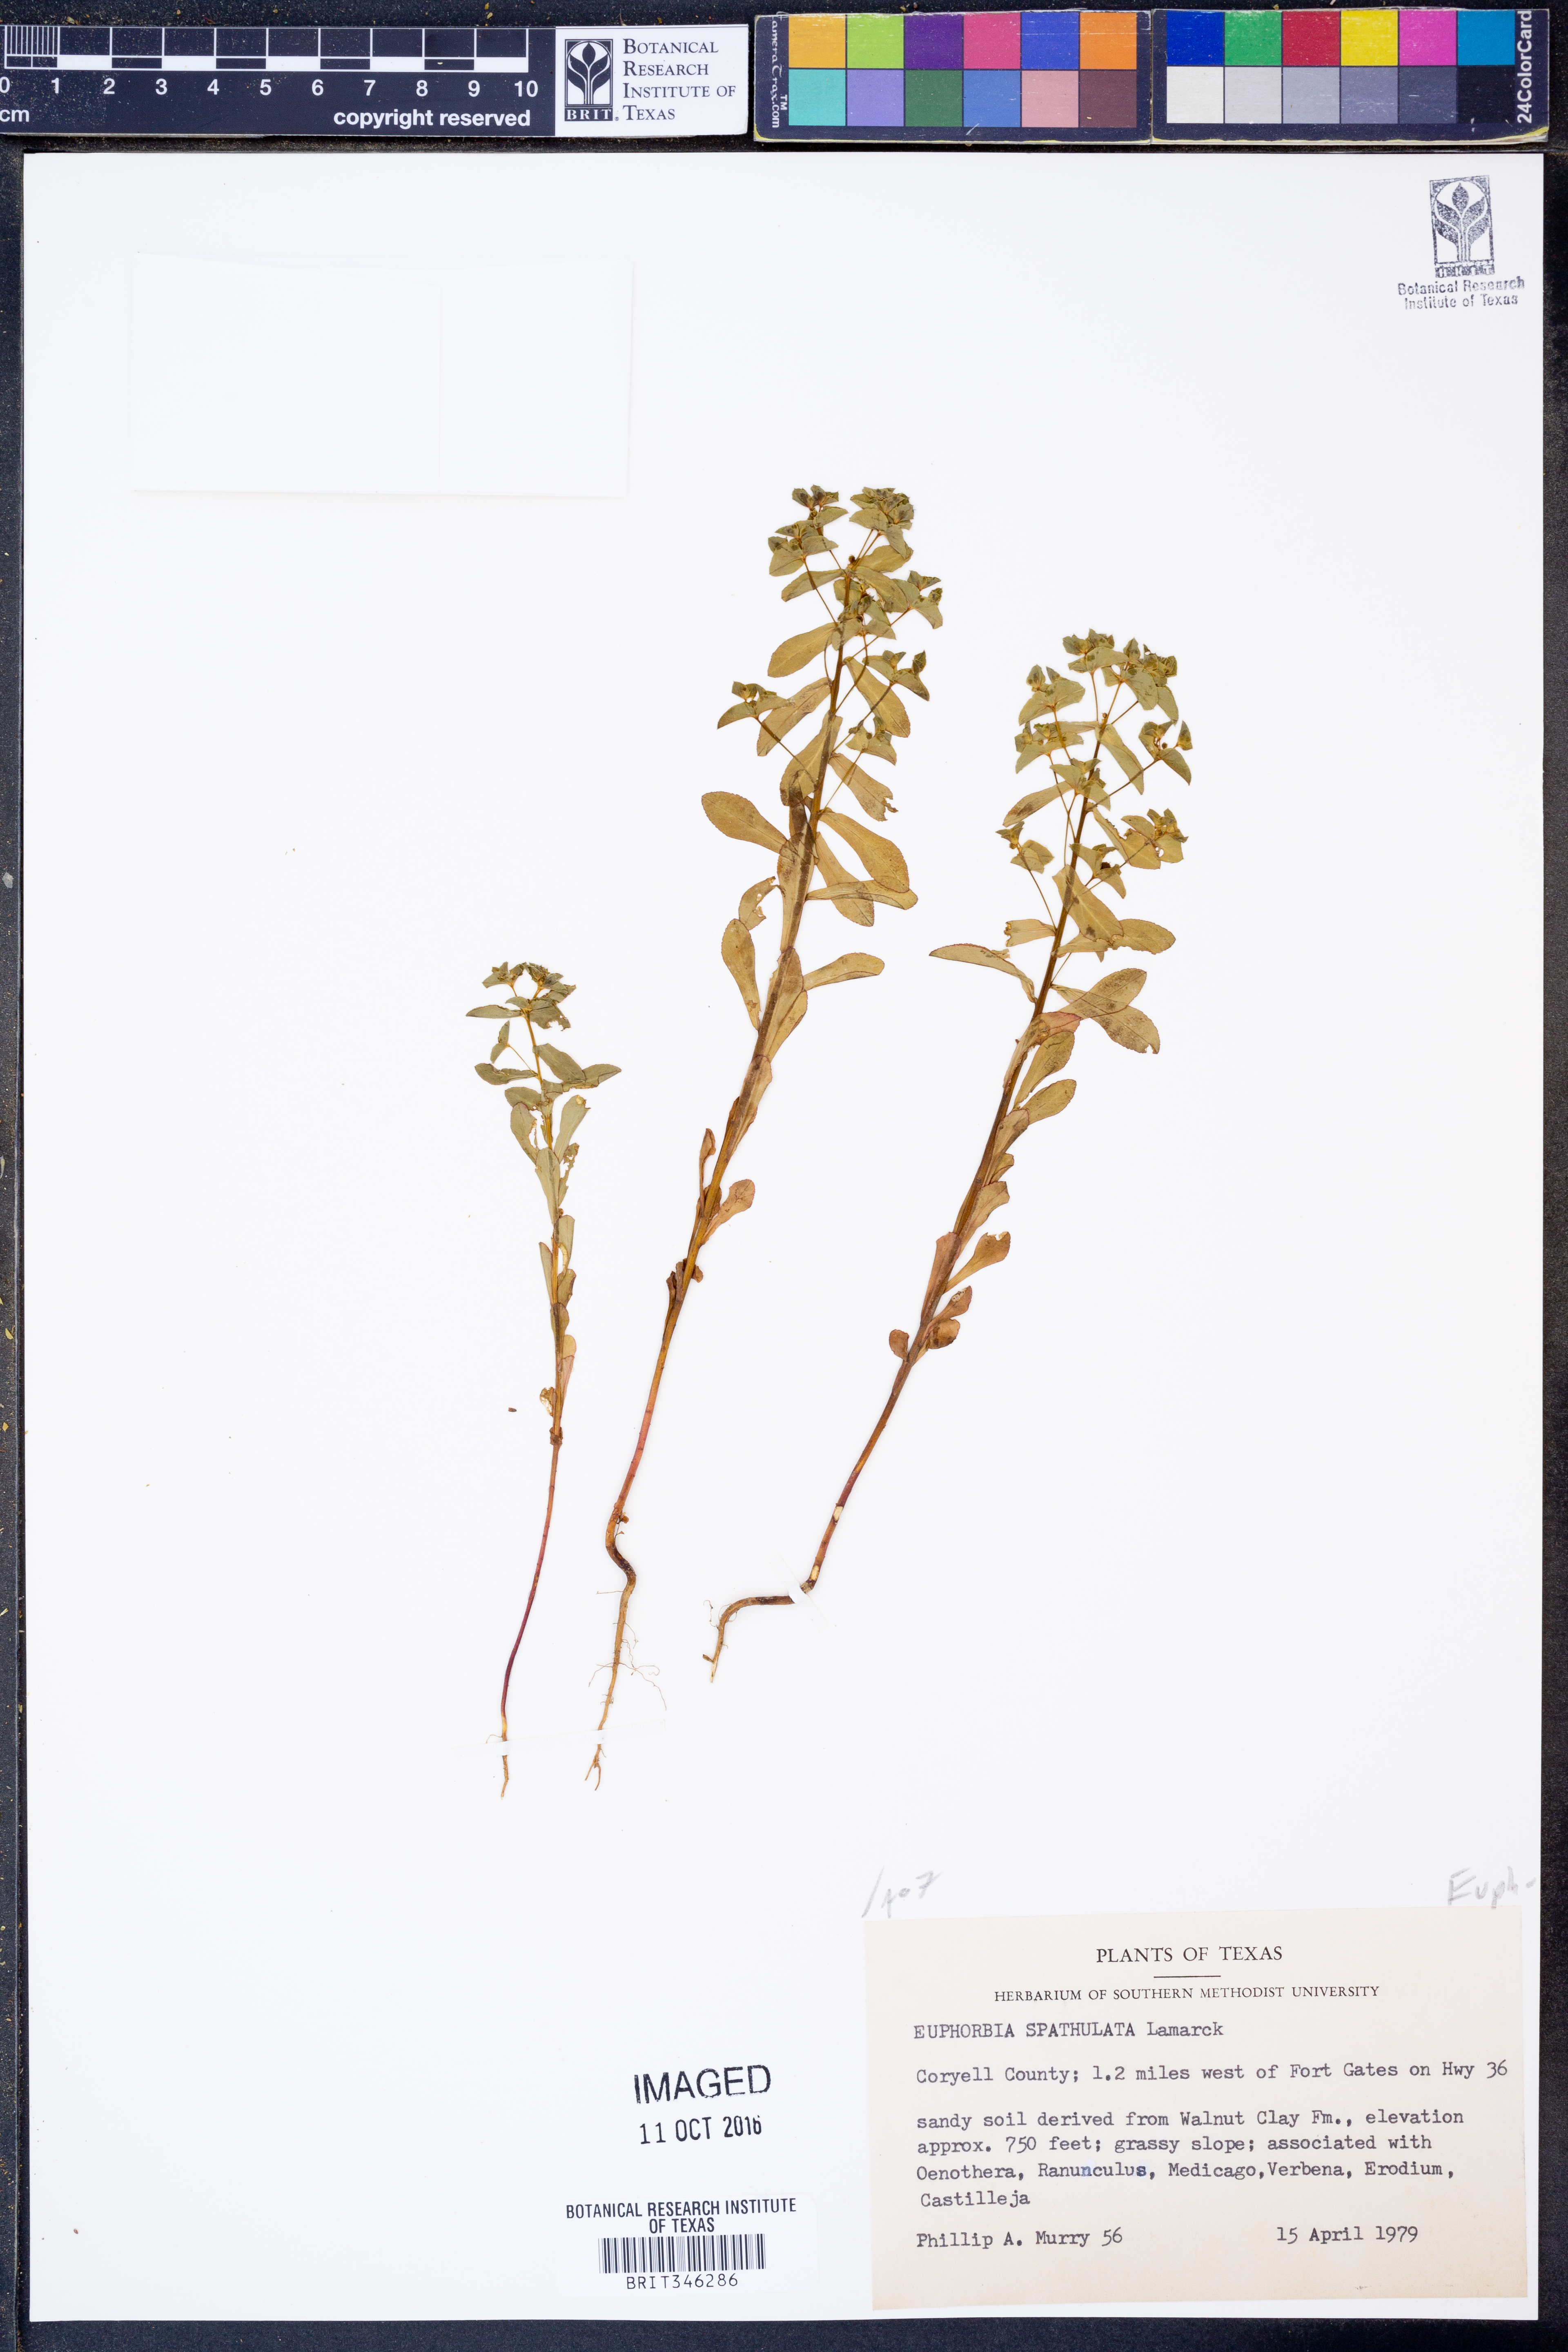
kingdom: Plantae
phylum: Tracheophyta
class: Magnoliopsida
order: Malpighiales
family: Euphorbiaceae
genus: Euphorbia
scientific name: Euphorbia spathulata
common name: Blunt spurge
